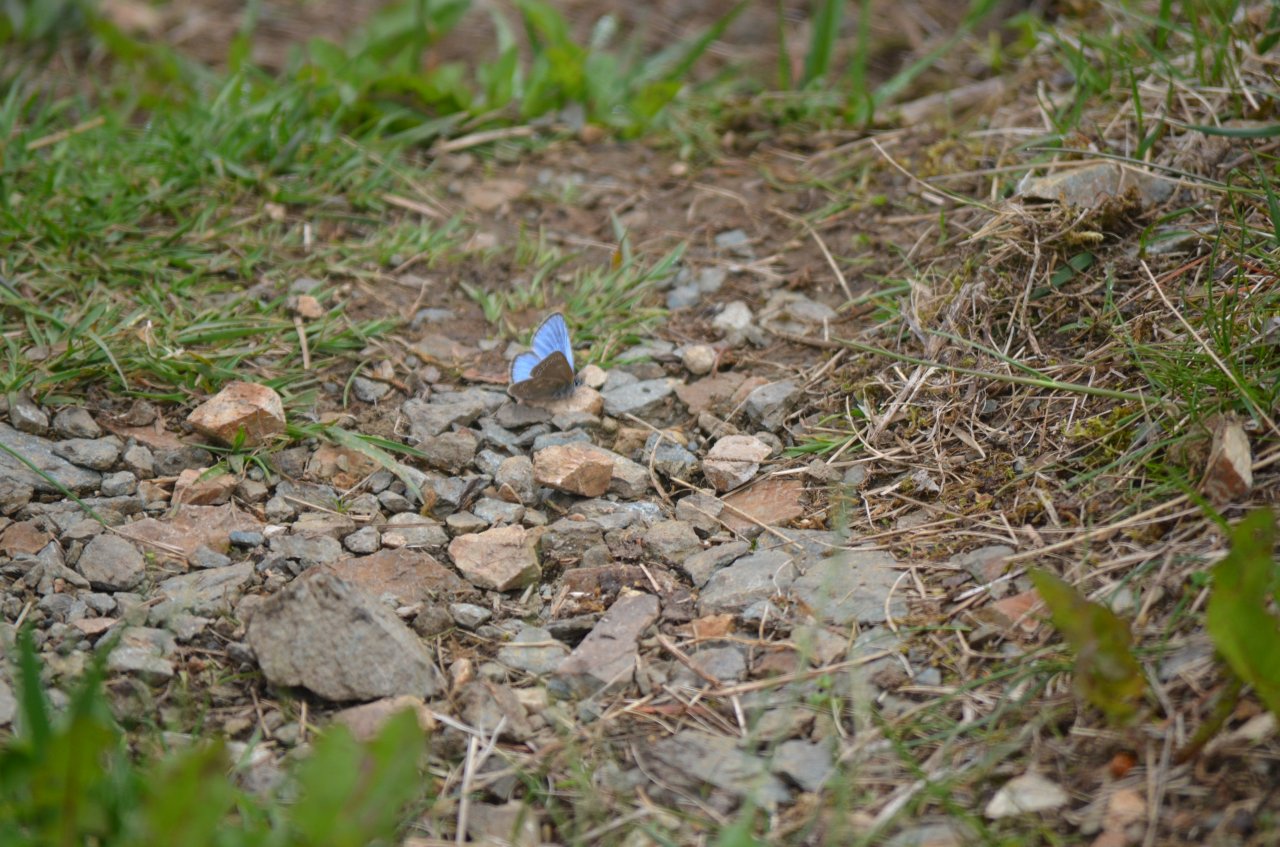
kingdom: Animalia
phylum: Arthropoda
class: Insecta
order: Lepidoptera
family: Lycaenidae
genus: Glaucopsyche
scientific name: Glaucopsyche lygdamus
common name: Silvery Blue
